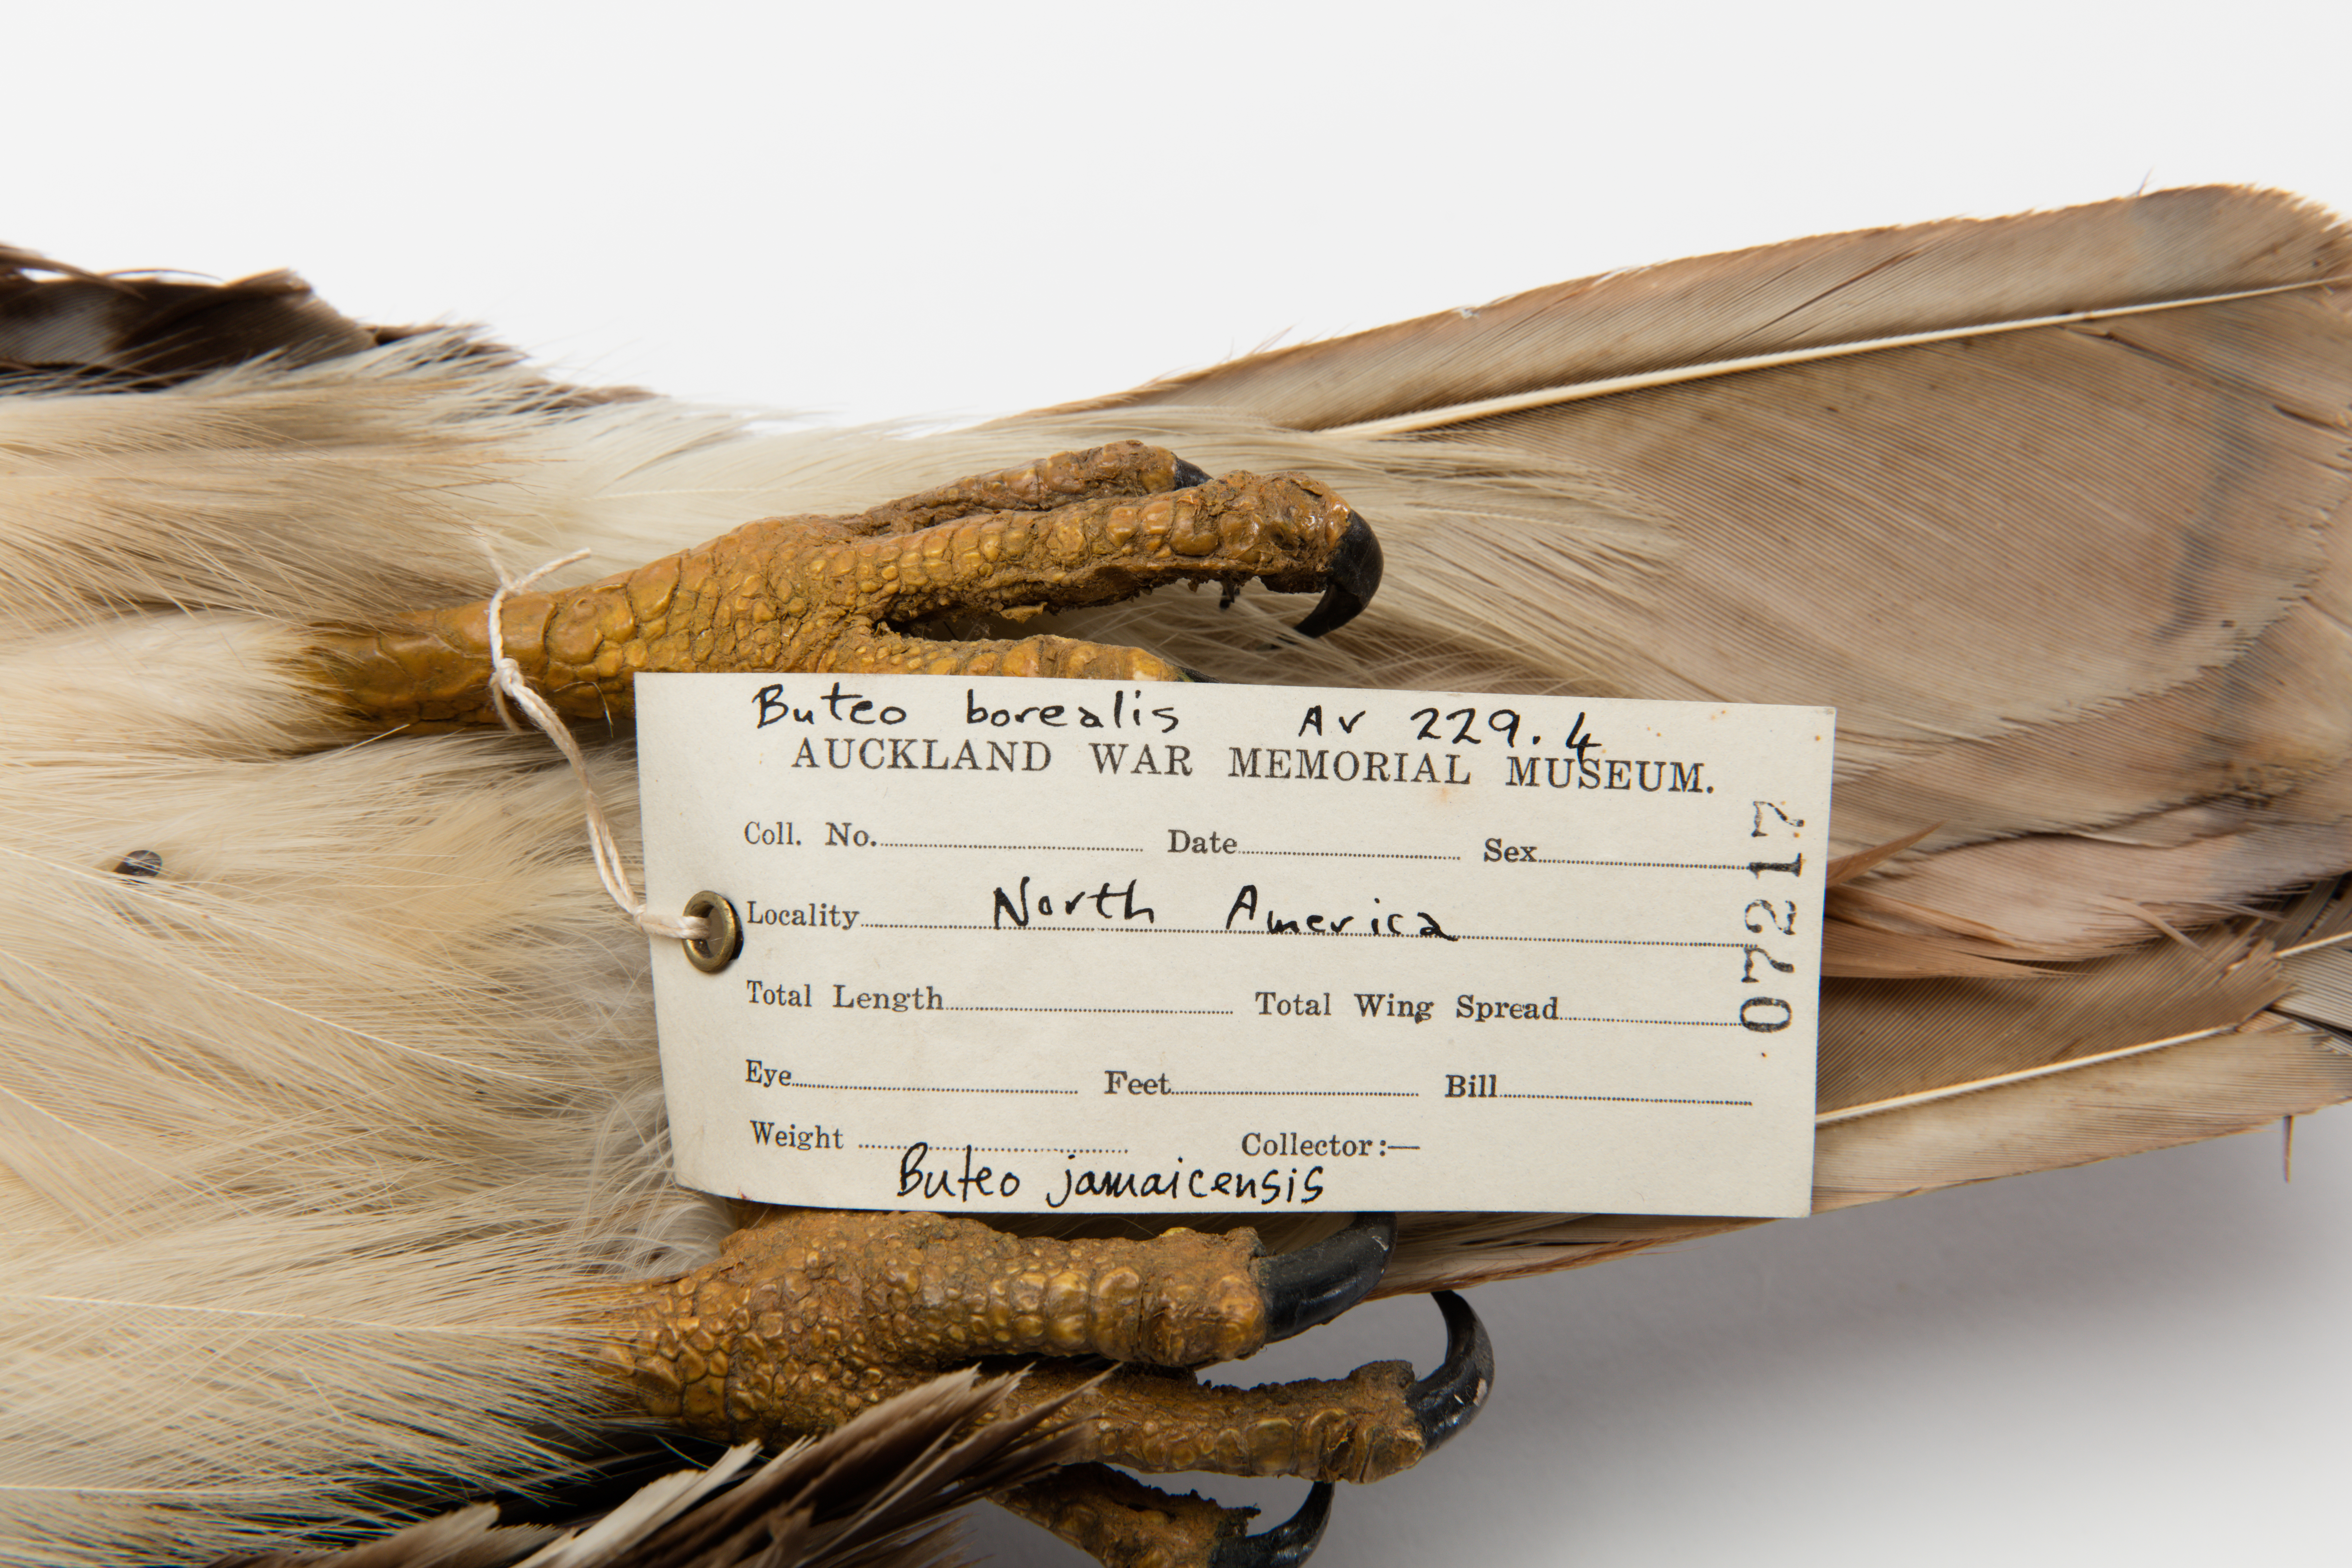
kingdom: Animalia
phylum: Chordata
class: Aves
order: Accipitriformes
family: Accipitridae
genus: Buteo
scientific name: Buteo jamaicensis
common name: Red-tailed hawk
